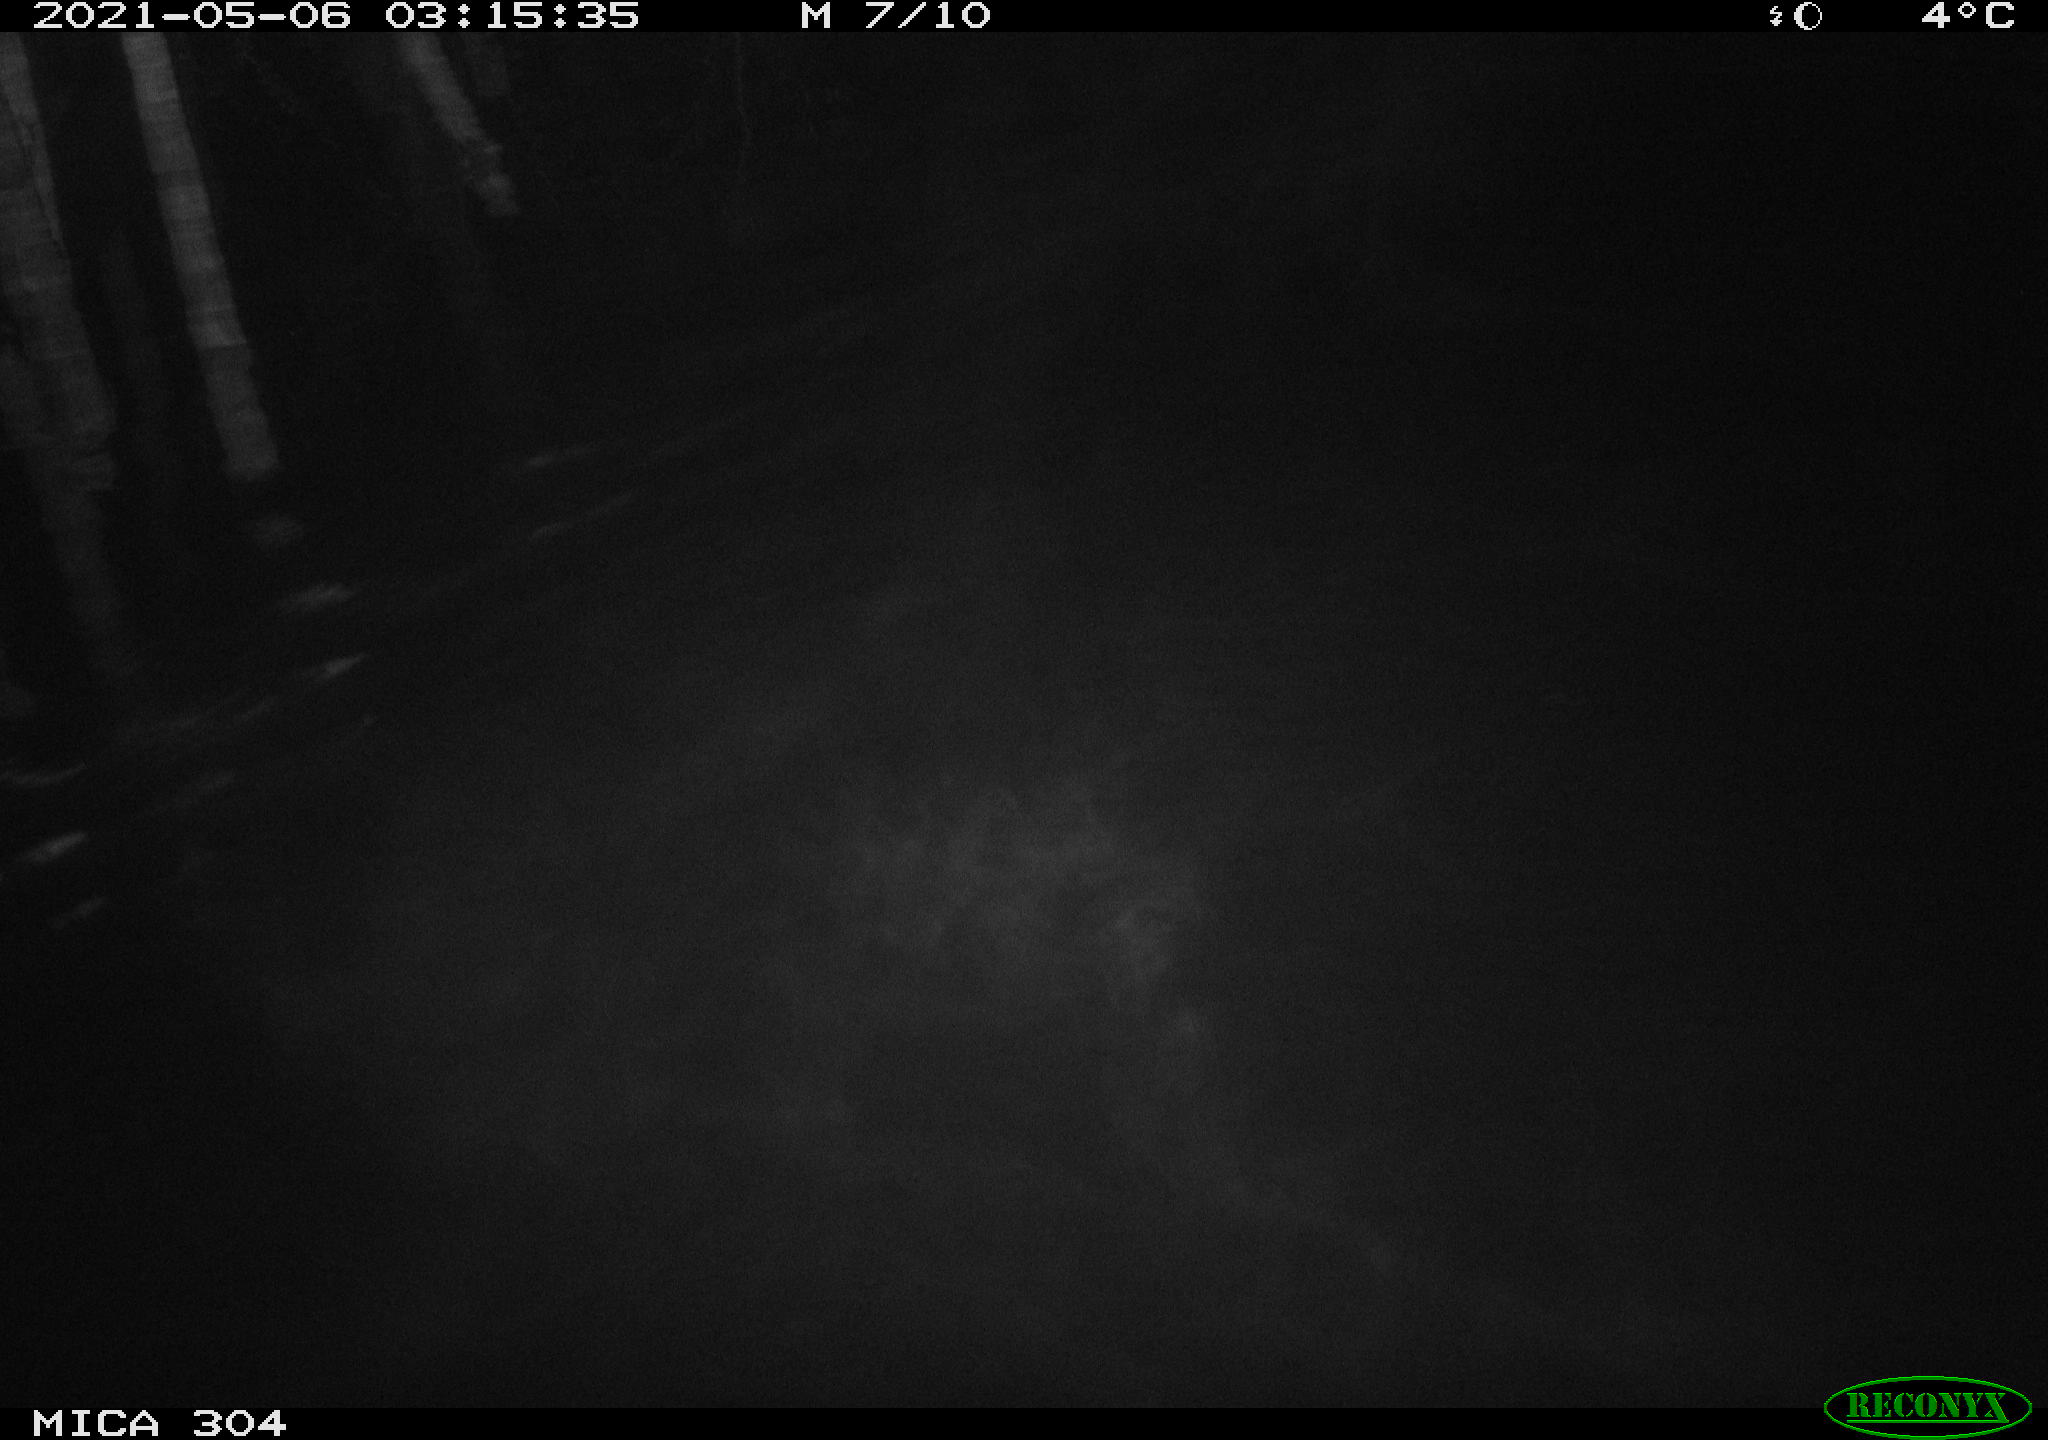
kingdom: Animalia
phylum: Chordata
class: Aves
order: Anseriformes
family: Anatidae
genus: Anas
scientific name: Anas platyrhynchos
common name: Mallard
